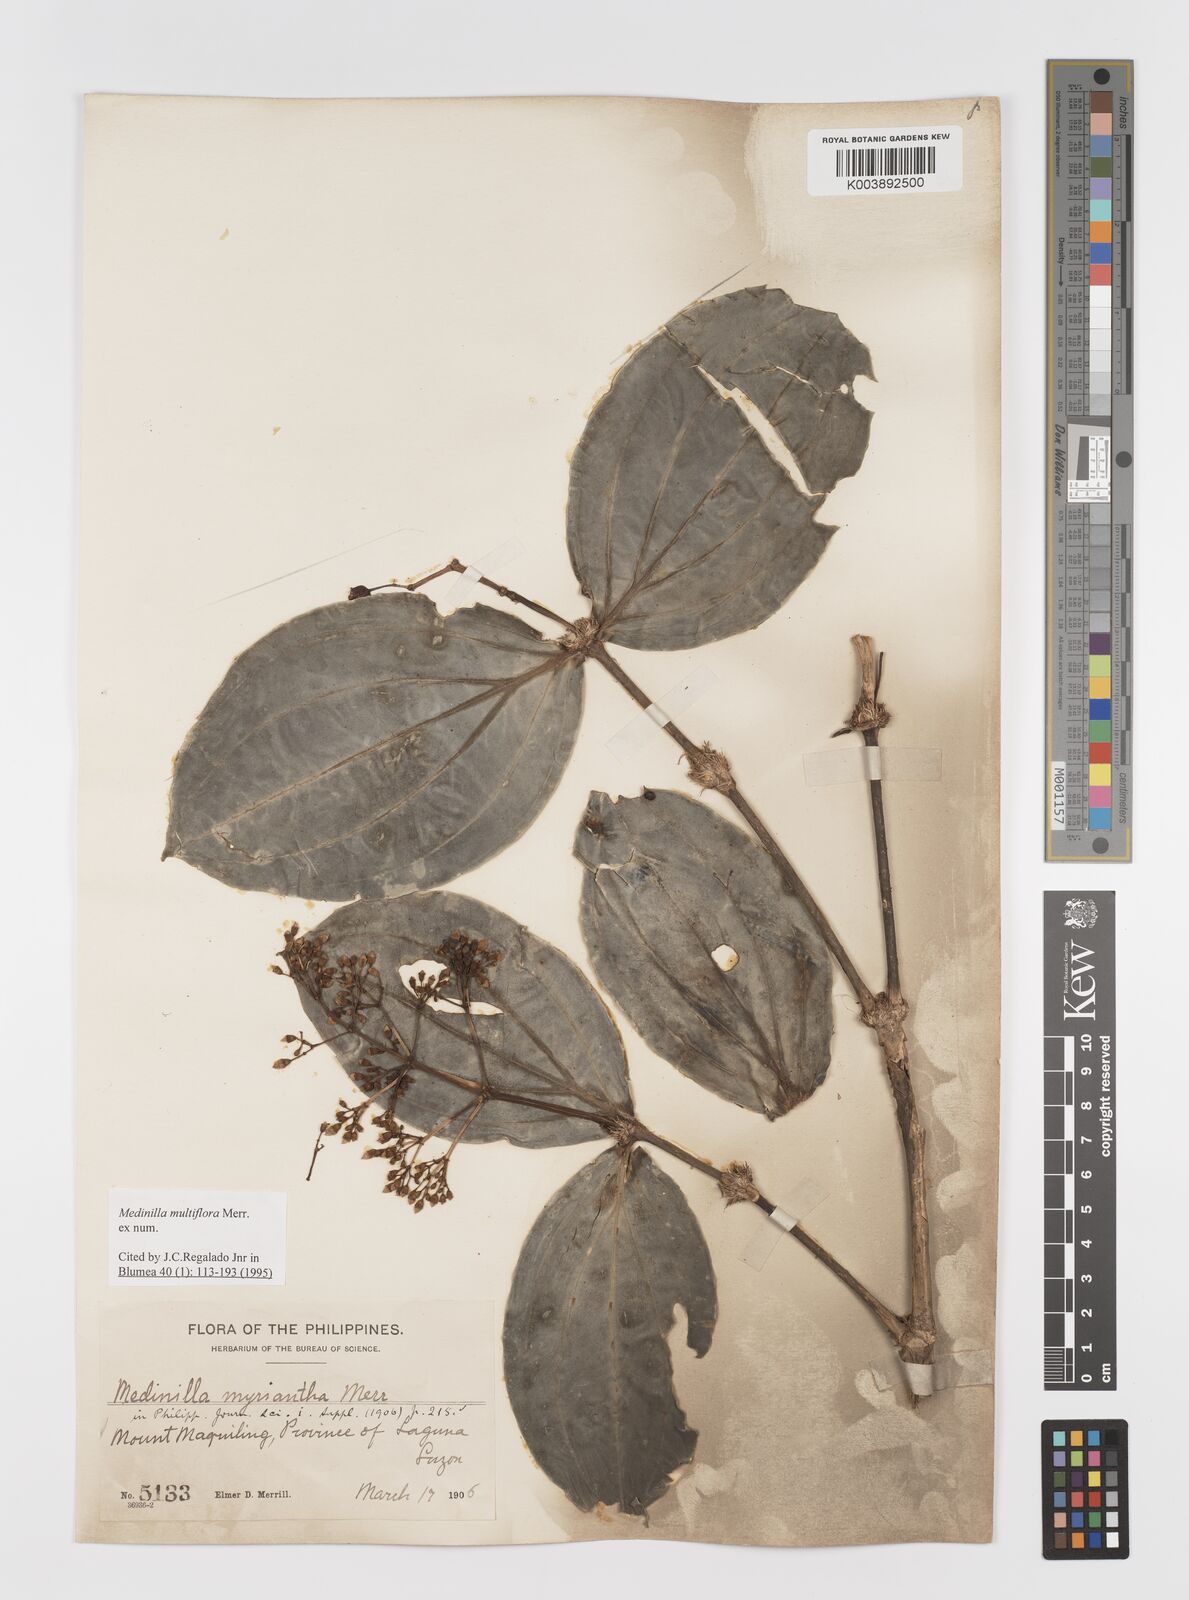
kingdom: Plantae
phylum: Tracheophyta
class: Magnoliopsida
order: Myrtales
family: Melastomataceae
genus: Medinilla
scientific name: Medinilla multiflora
